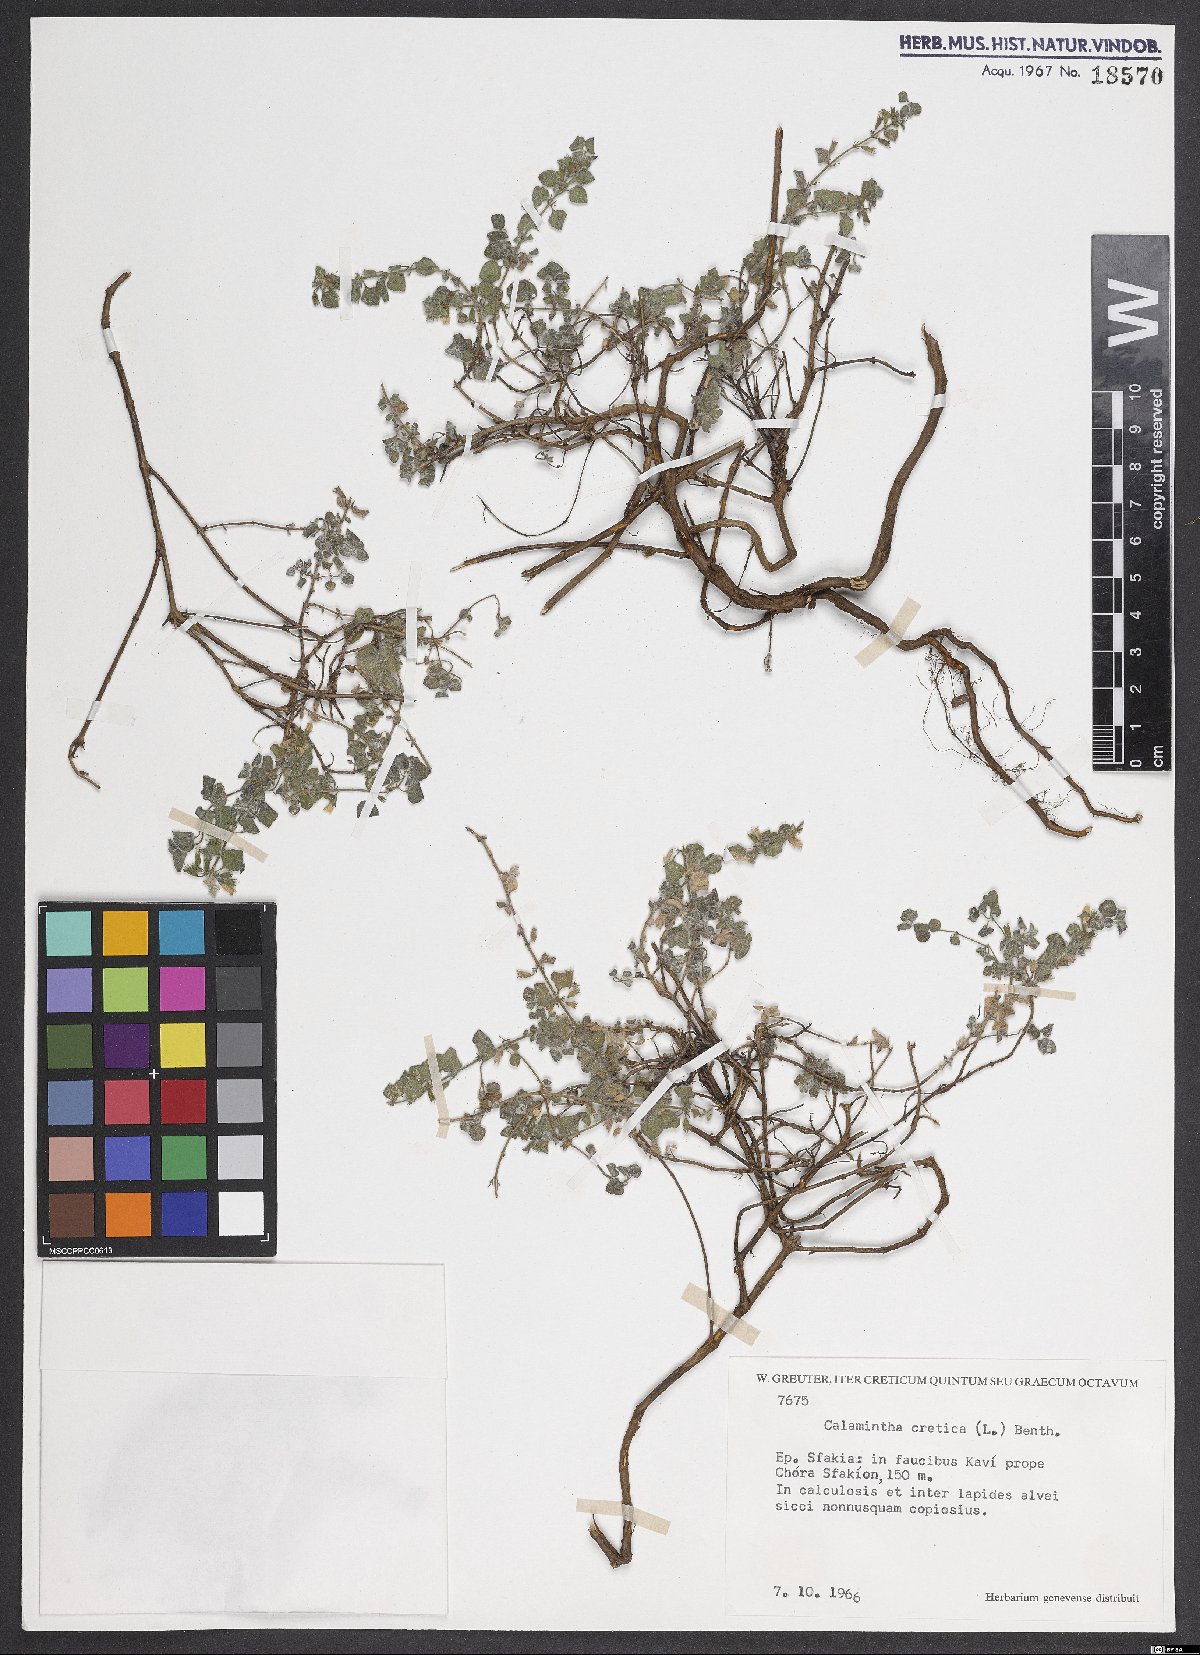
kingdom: Plantae
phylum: Tracheophyta
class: Magnoliopsida
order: Lamiales
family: Lamiaceae
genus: Clinopodium
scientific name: Clinopodium creticum
